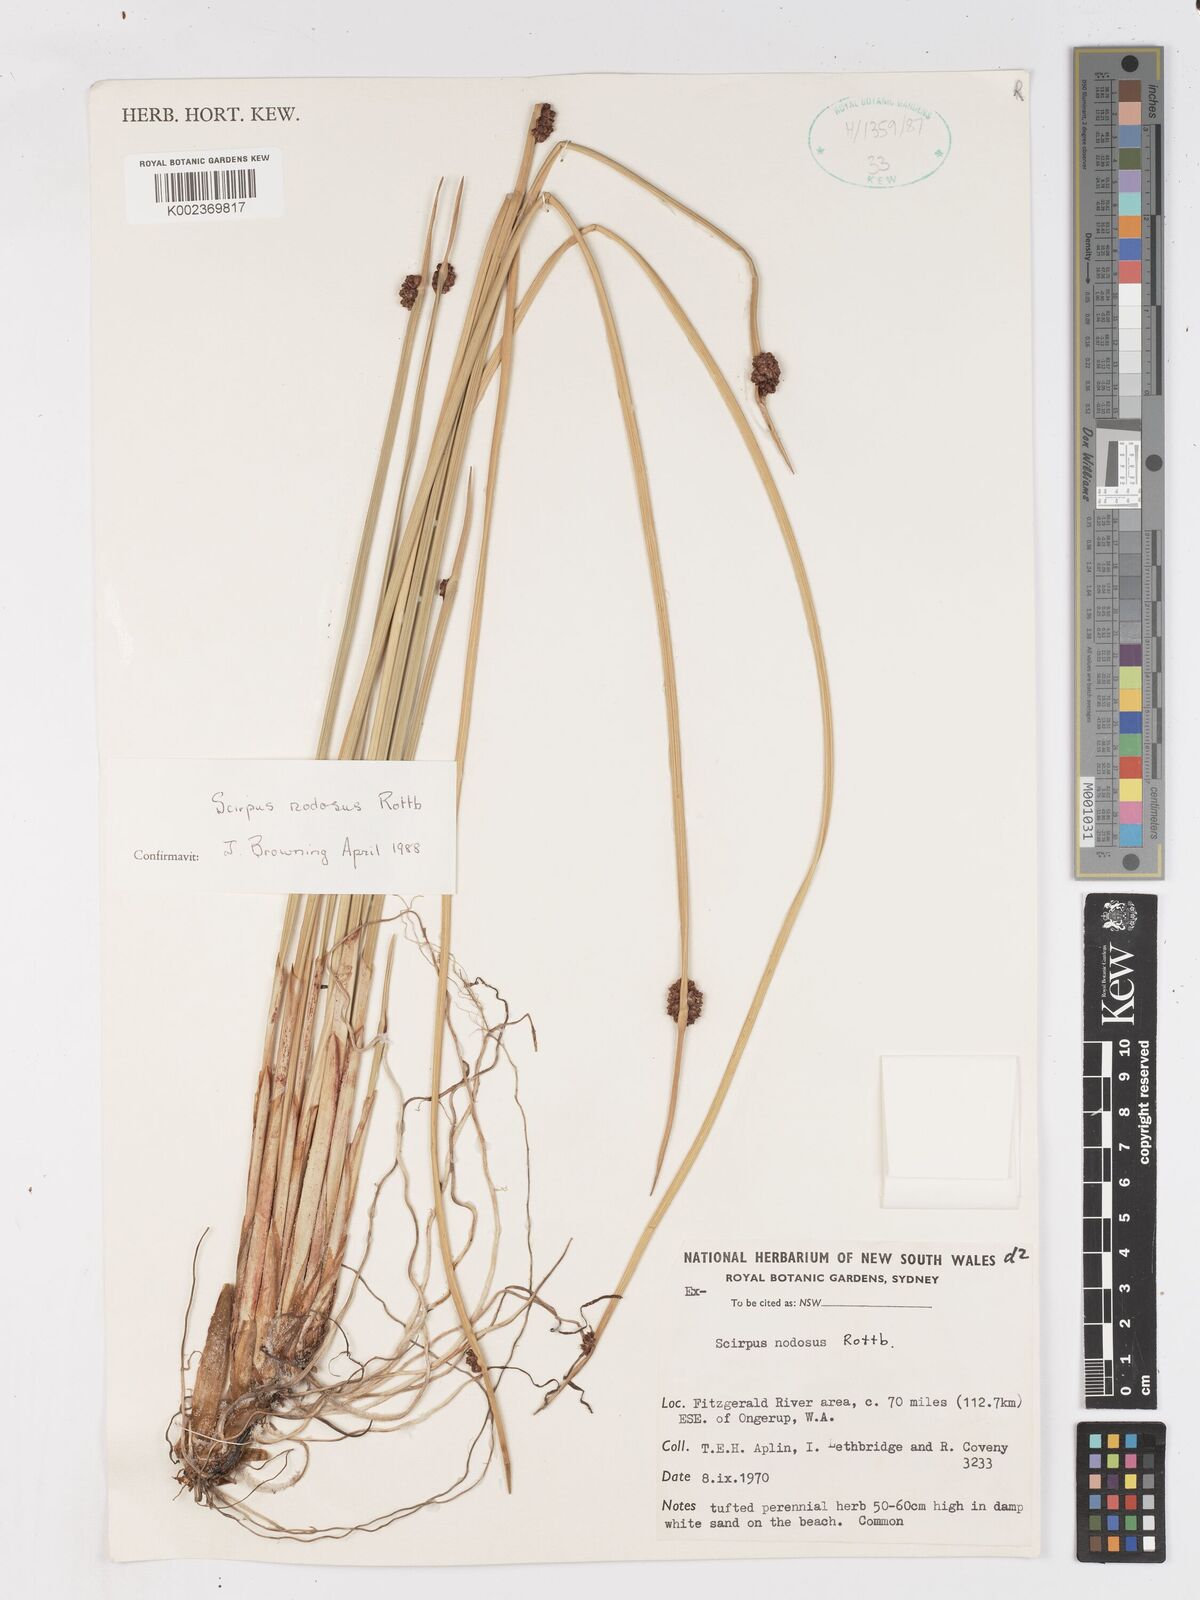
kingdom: Plantae
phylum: Tracheophyta
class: Liliopsida
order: Poales
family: Cyperaceae
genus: Ficinia
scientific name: Ficinia nodosa
